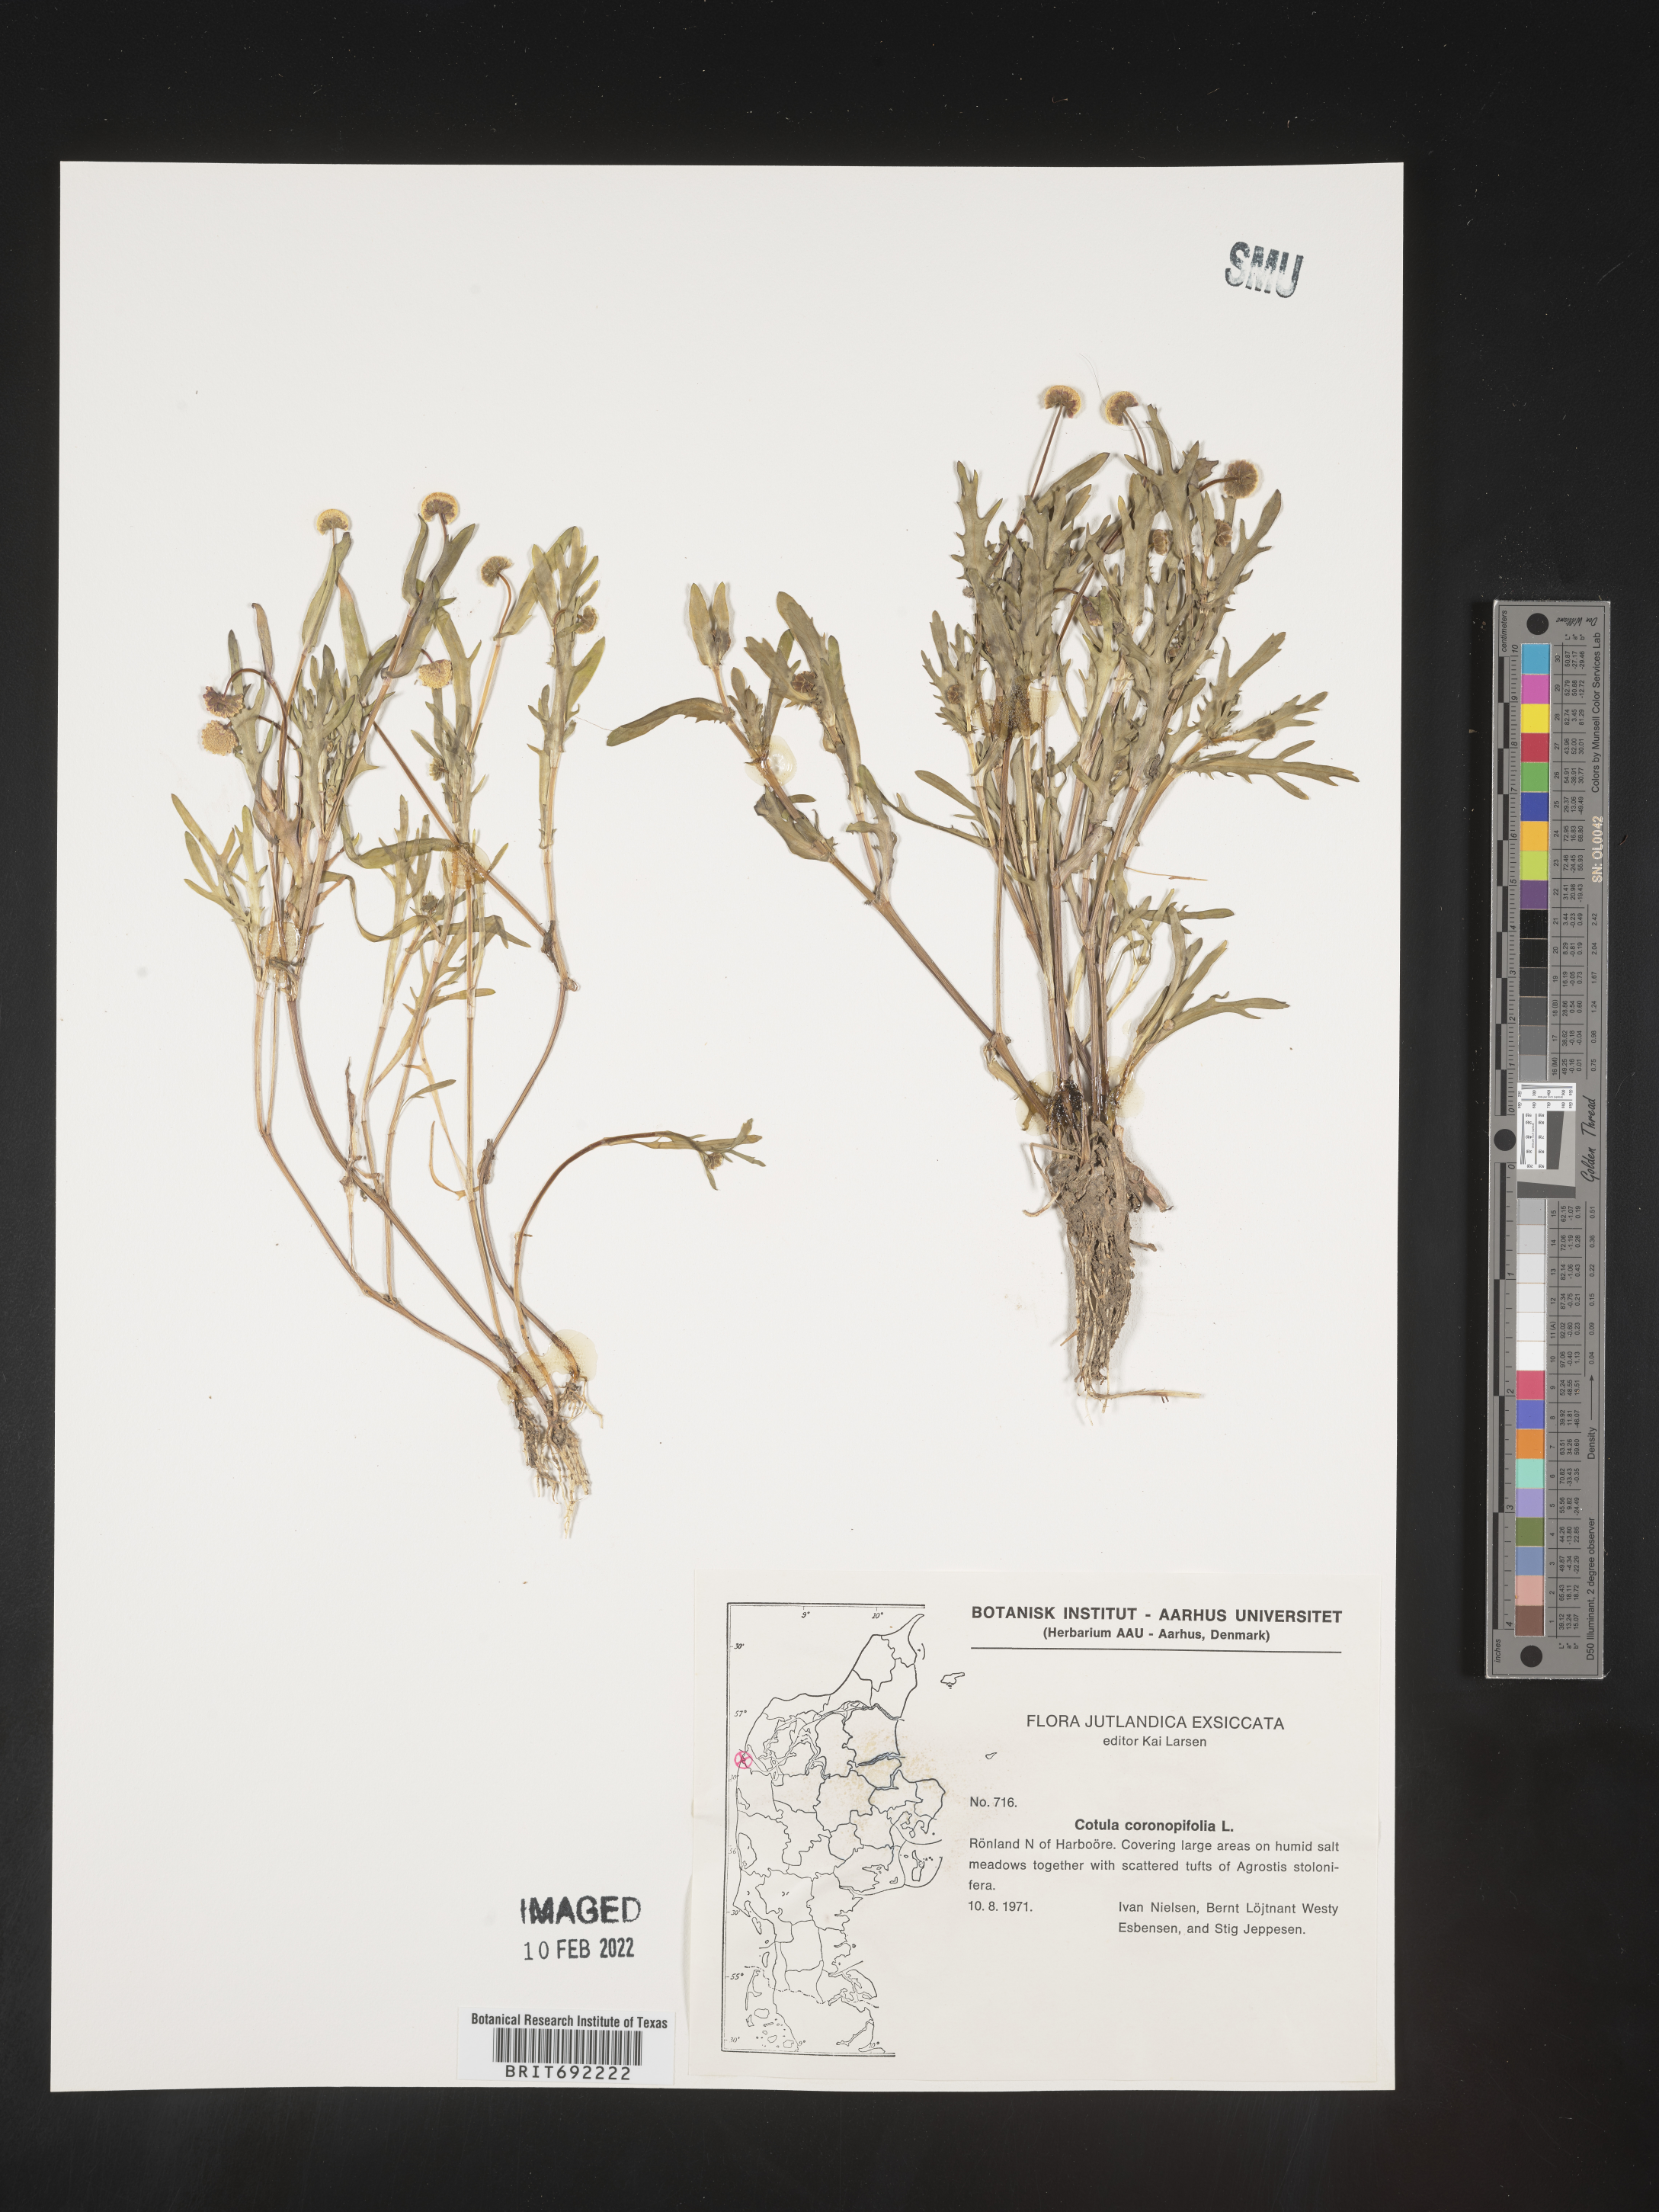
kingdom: Plantae
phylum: Tracheophyta
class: Magnoliopsida
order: Asterales
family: Asteraceae
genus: Cotula
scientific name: Cotula
